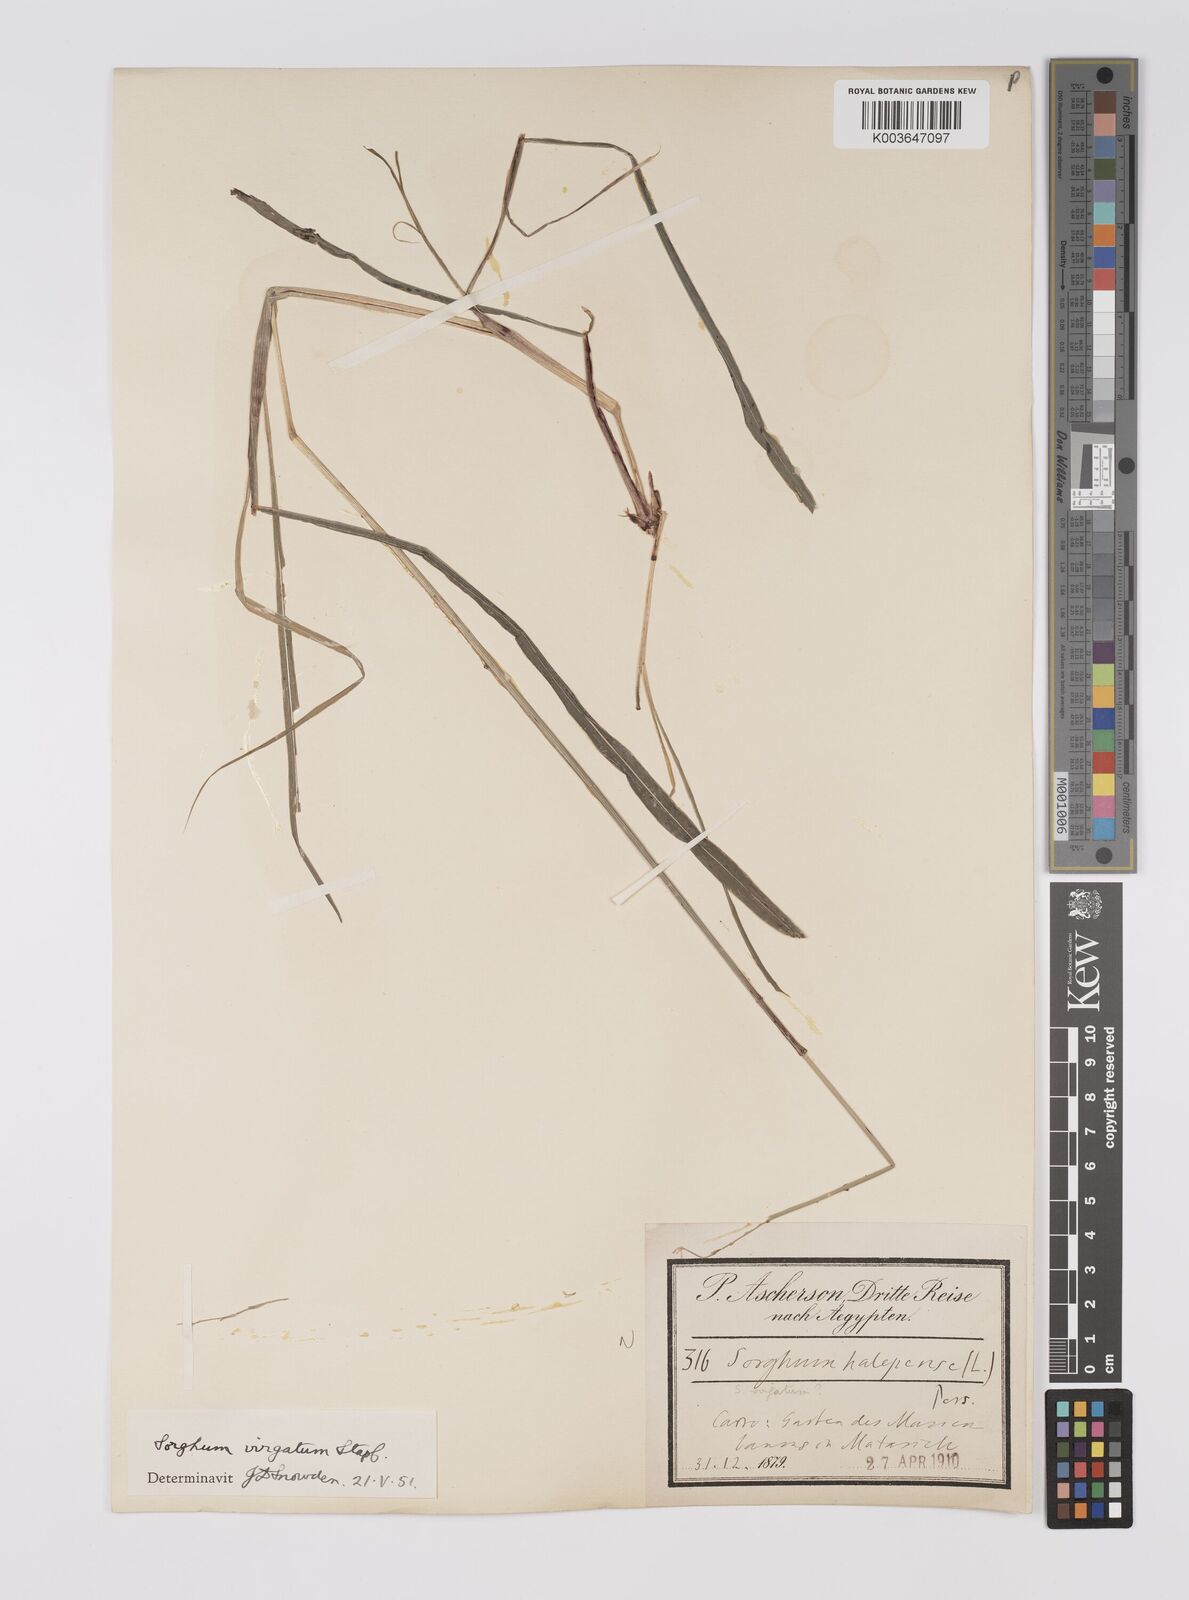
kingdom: Plantae
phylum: Tracheophyta
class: Liliopsida
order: Poales
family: Poaceae
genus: Sorghum
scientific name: Sorghum virgatum
